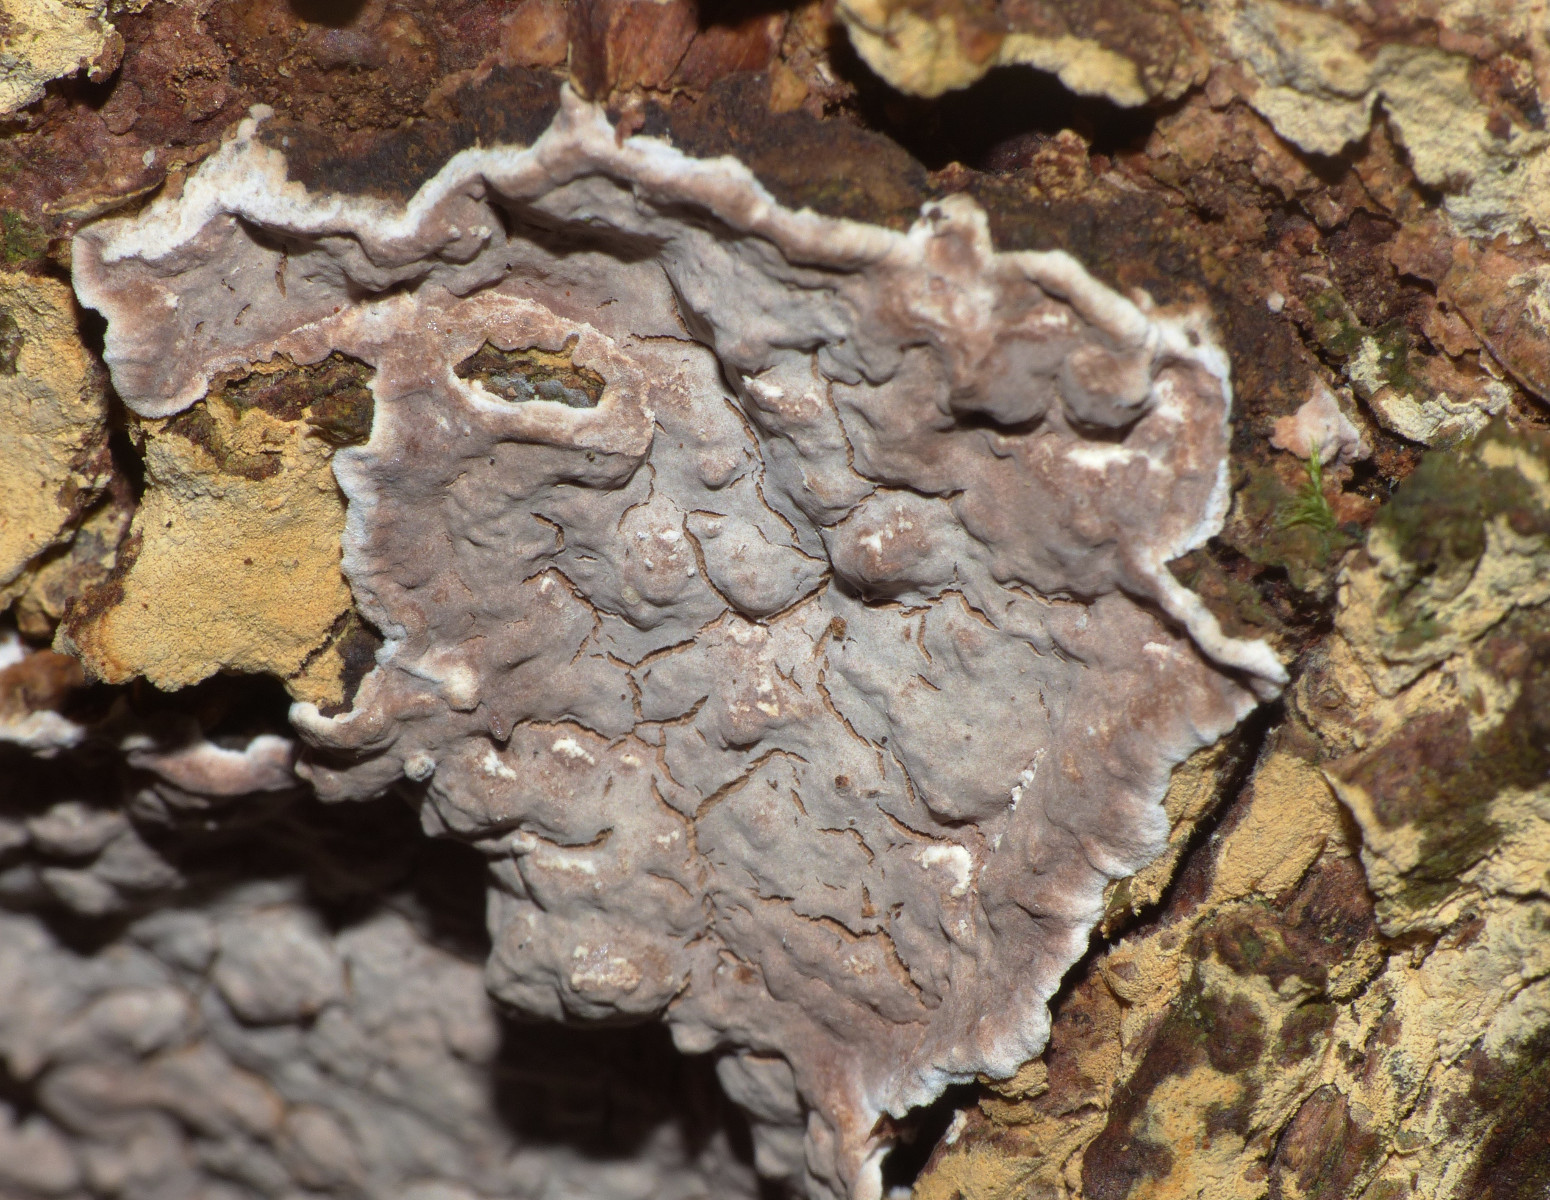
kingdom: Fungi
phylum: Basidiomycota
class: Agaricomycetes
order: Russulales
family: Echinodontiaceae
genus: Amylostereum
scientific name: Amylostereum chailletii
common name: gran-lædersvamp
